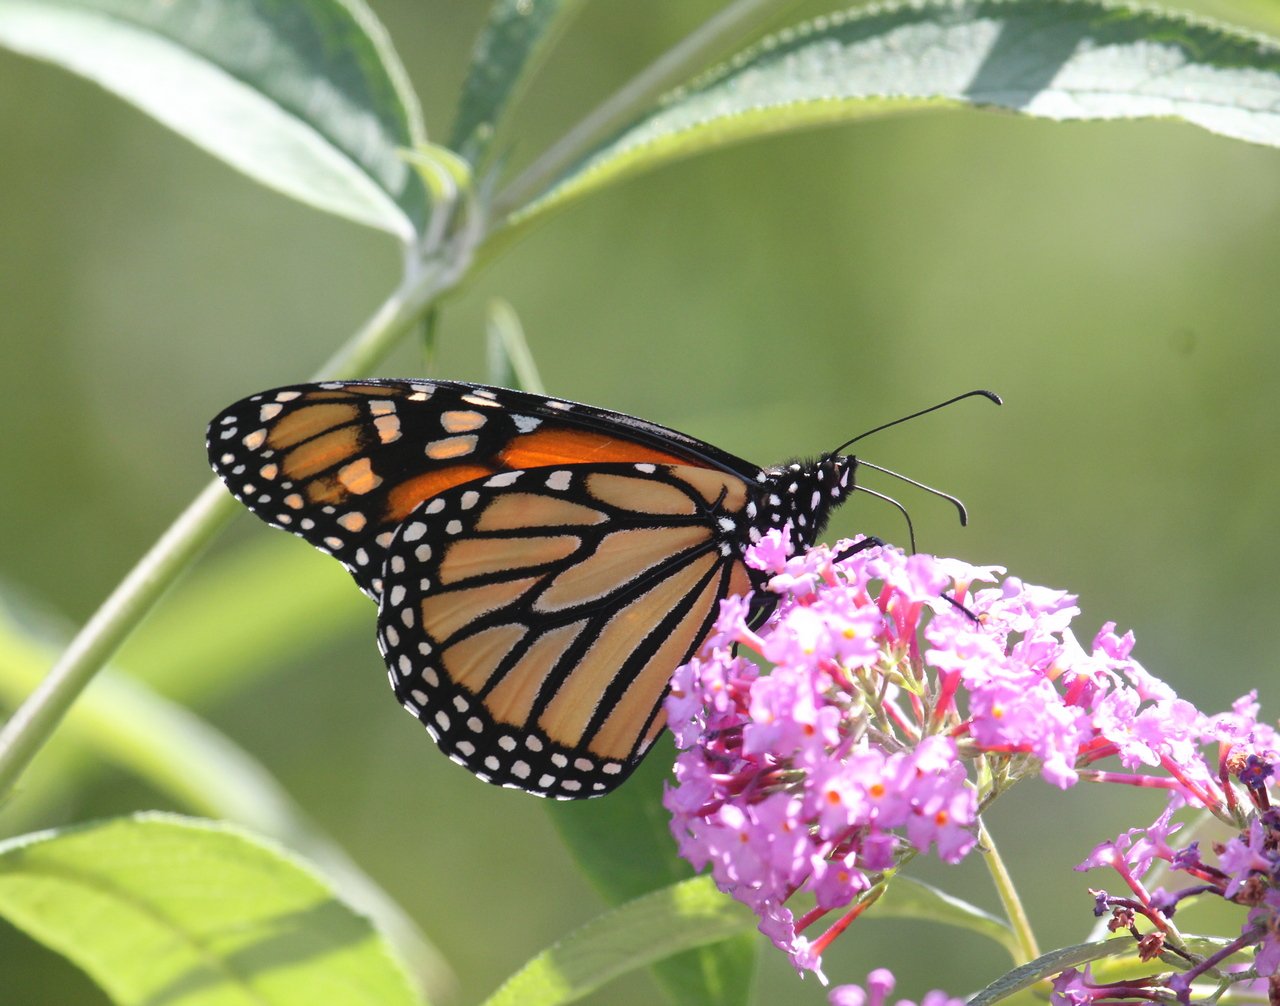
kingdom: Animalia
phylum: Arthropoda
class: Insecta
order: Lepidoptera
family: Nymphalidae
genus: Danaus
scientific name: Danaus plexippus
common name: Monarch
